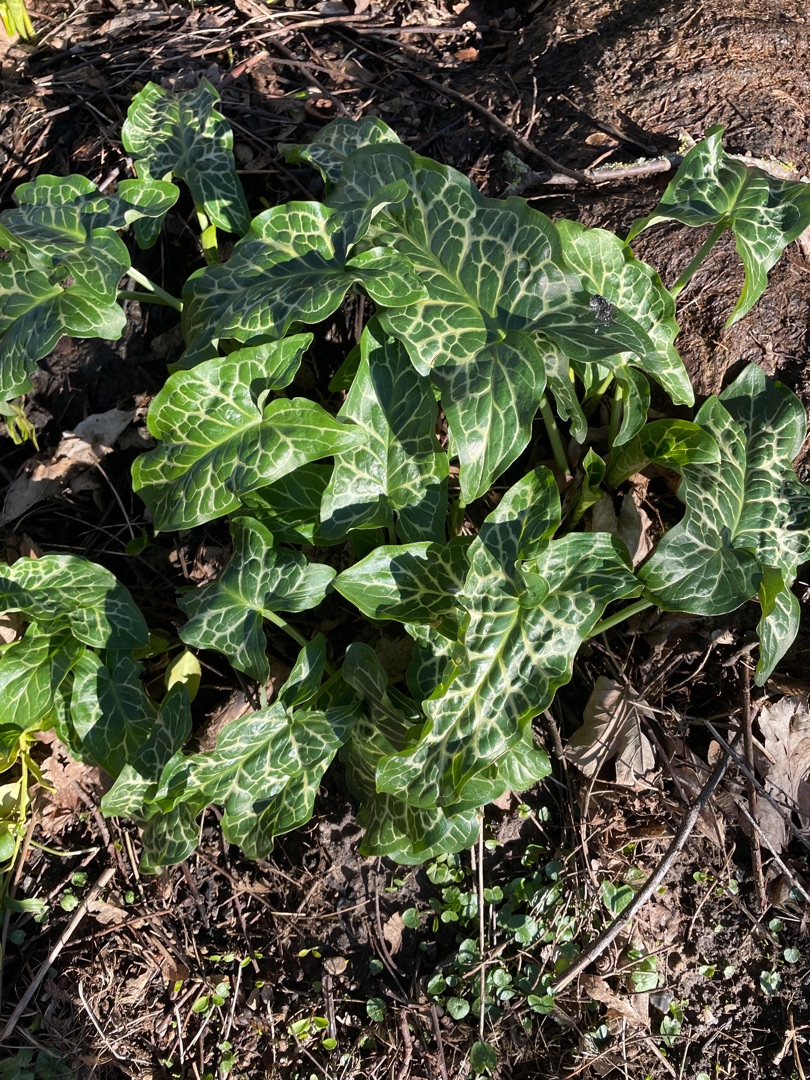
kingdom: Plantae
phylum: Tracheophyta
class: Liliopsida
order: Alismatales
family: Araceae
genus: Arum
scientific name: Arum italicum
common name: Italiensk arum
